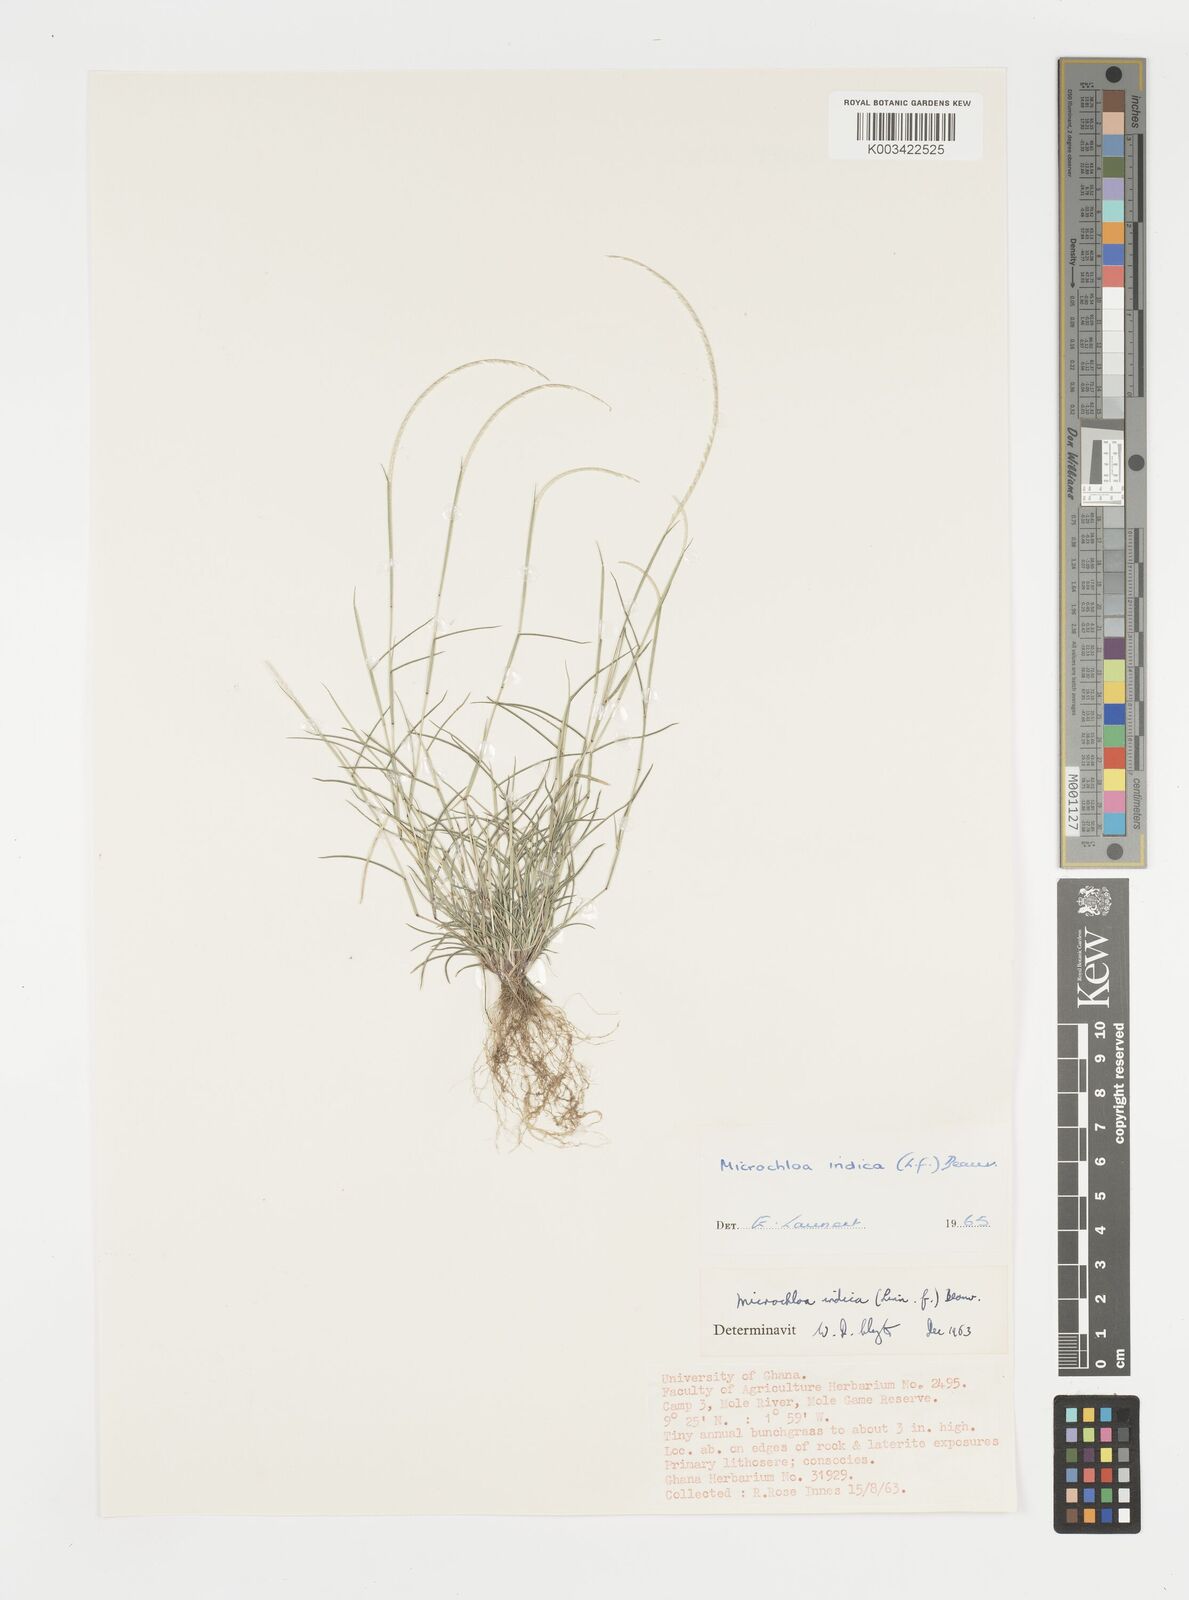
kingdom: Plantae
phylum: Tracheophyta
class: Liliopsida
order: Poales
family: Poaceae
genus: Microchloa
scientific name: Microchloa indica
